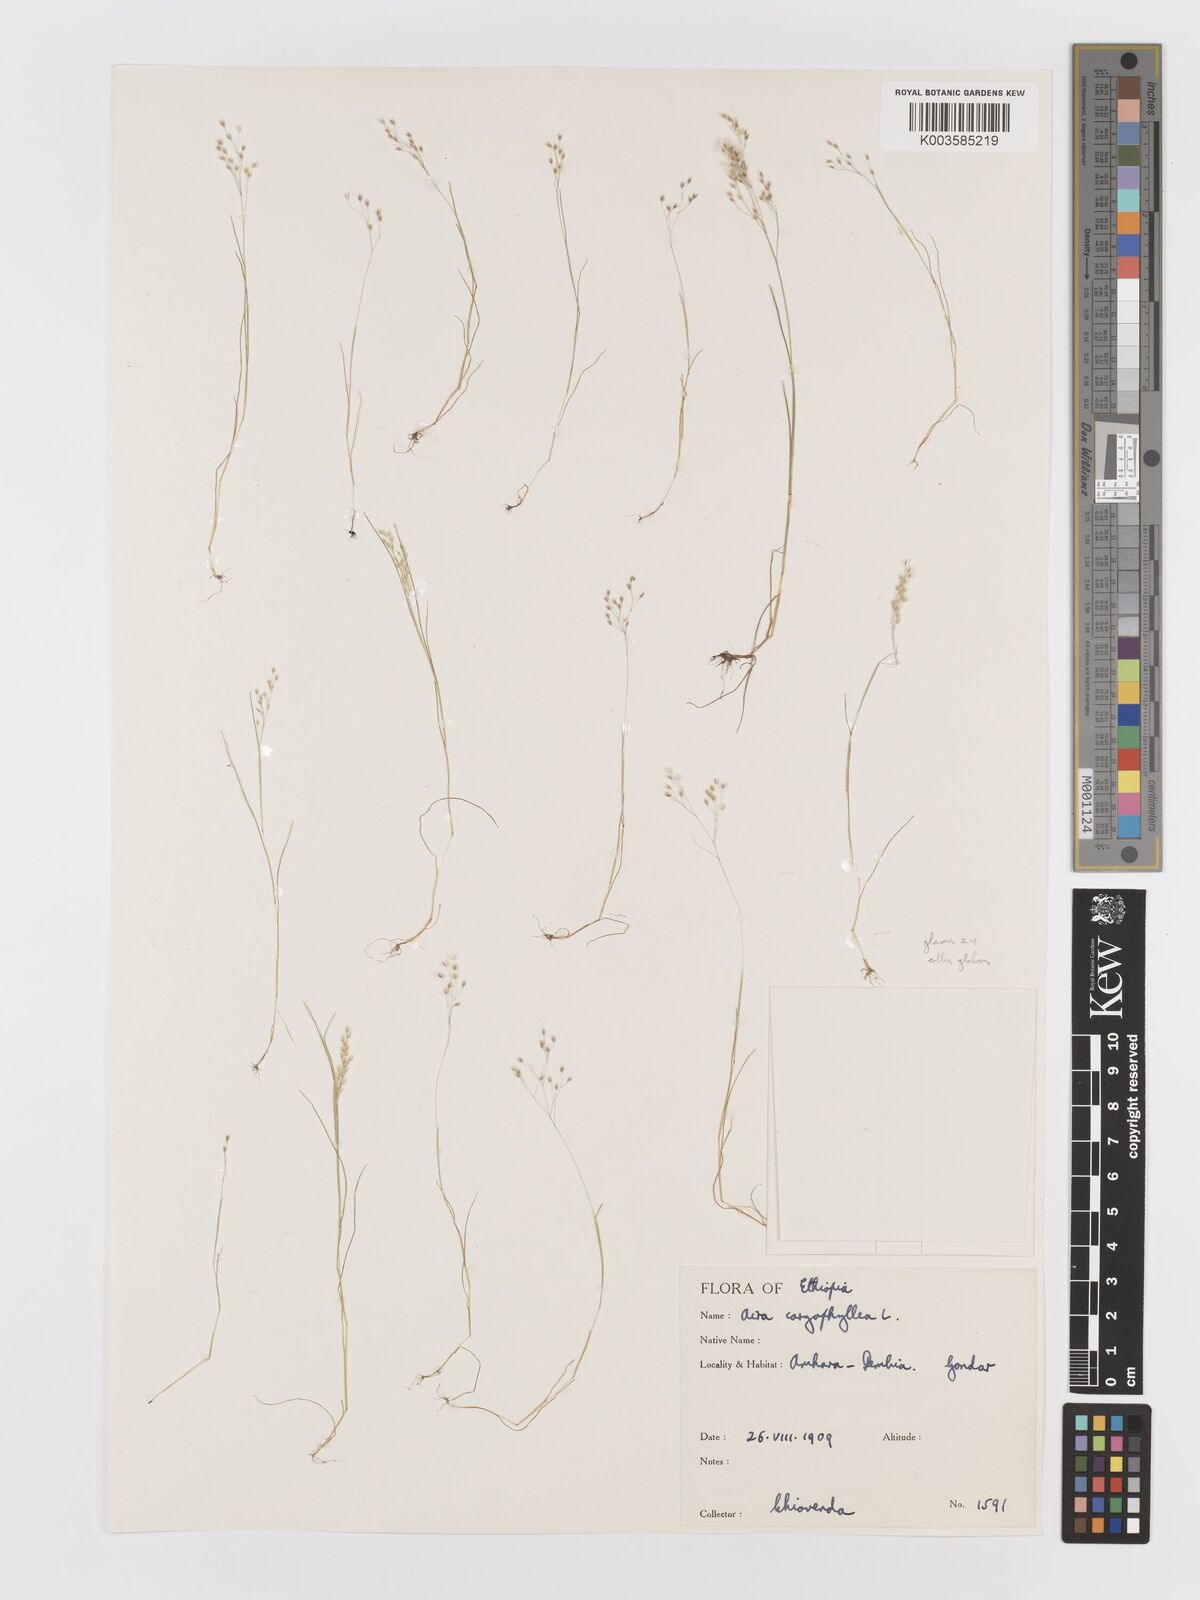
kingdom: Plantae
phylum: Tracheophyta
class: Liliopsida
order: Poales
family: Poaceae
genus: Aira
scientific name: Aira caryophyllea
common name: Silver hairgrass
